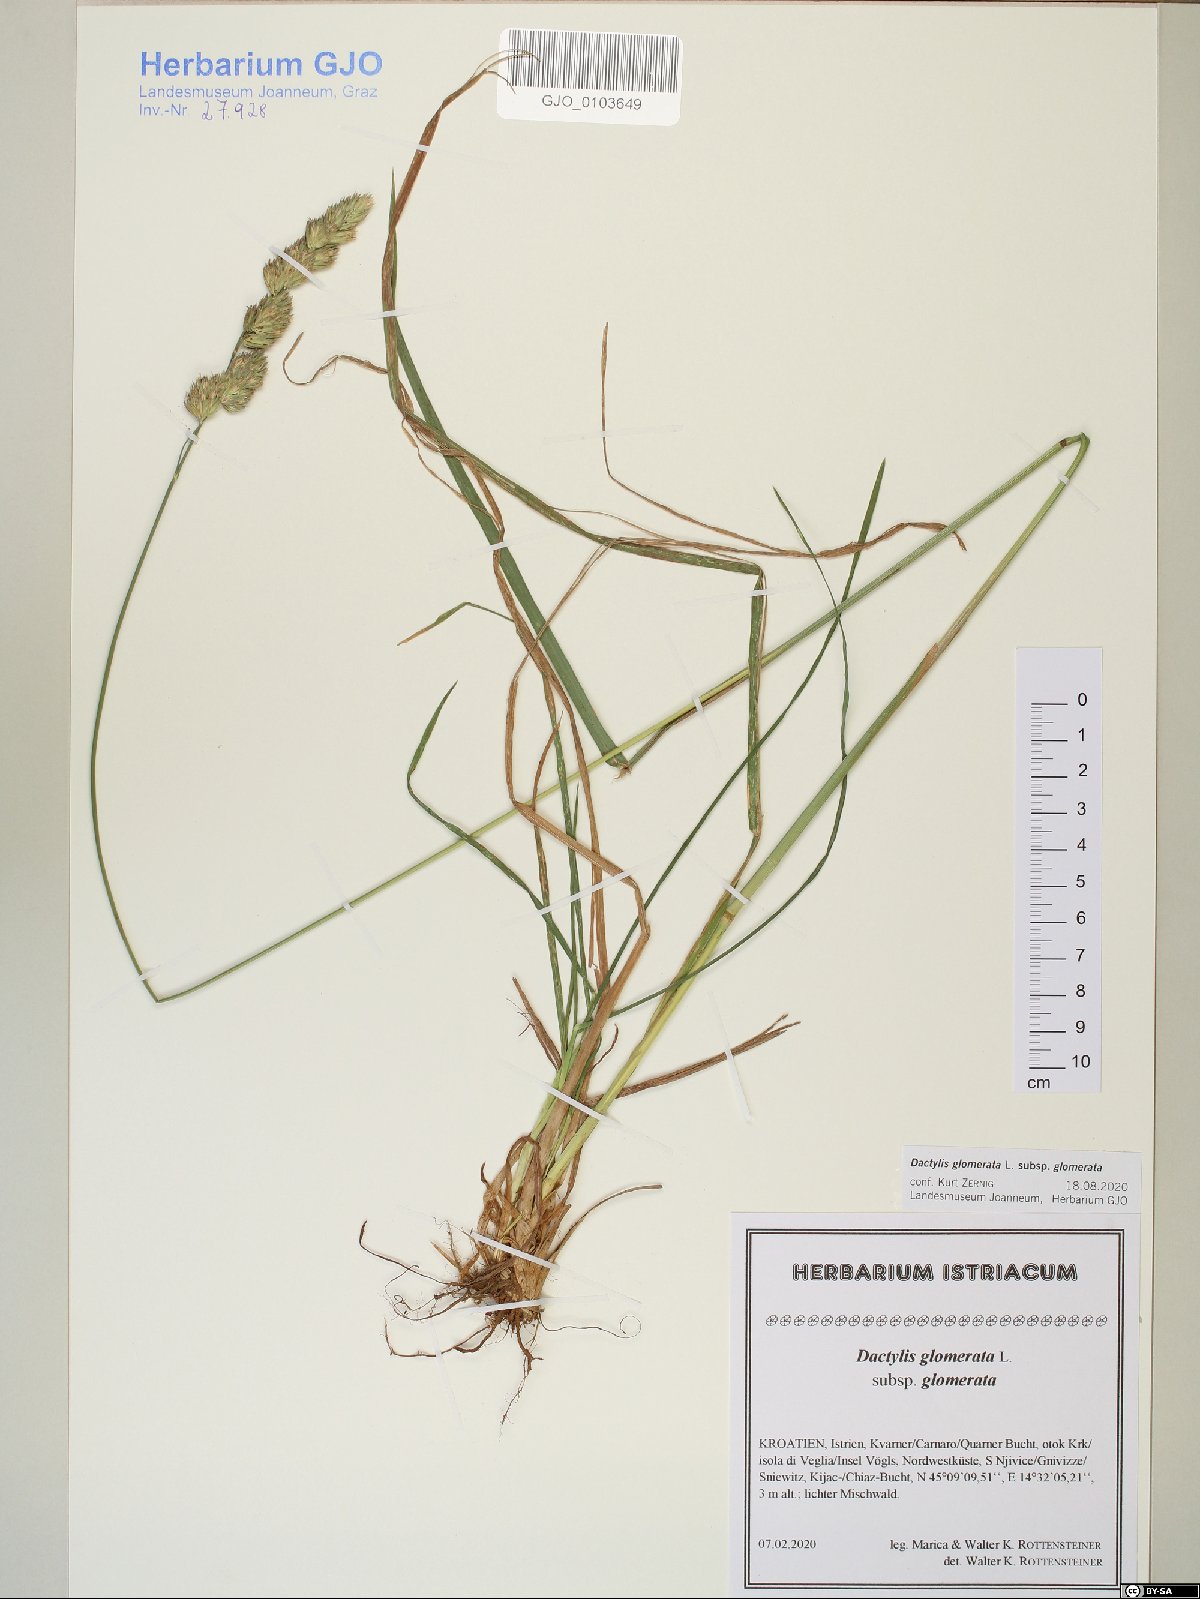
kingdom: Plantae
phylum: Tracheophyta
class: Liliopsida
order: Poales
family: Poaceae
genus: Dactylis
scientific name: Dactylis glomerata
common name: Orchardgrass
